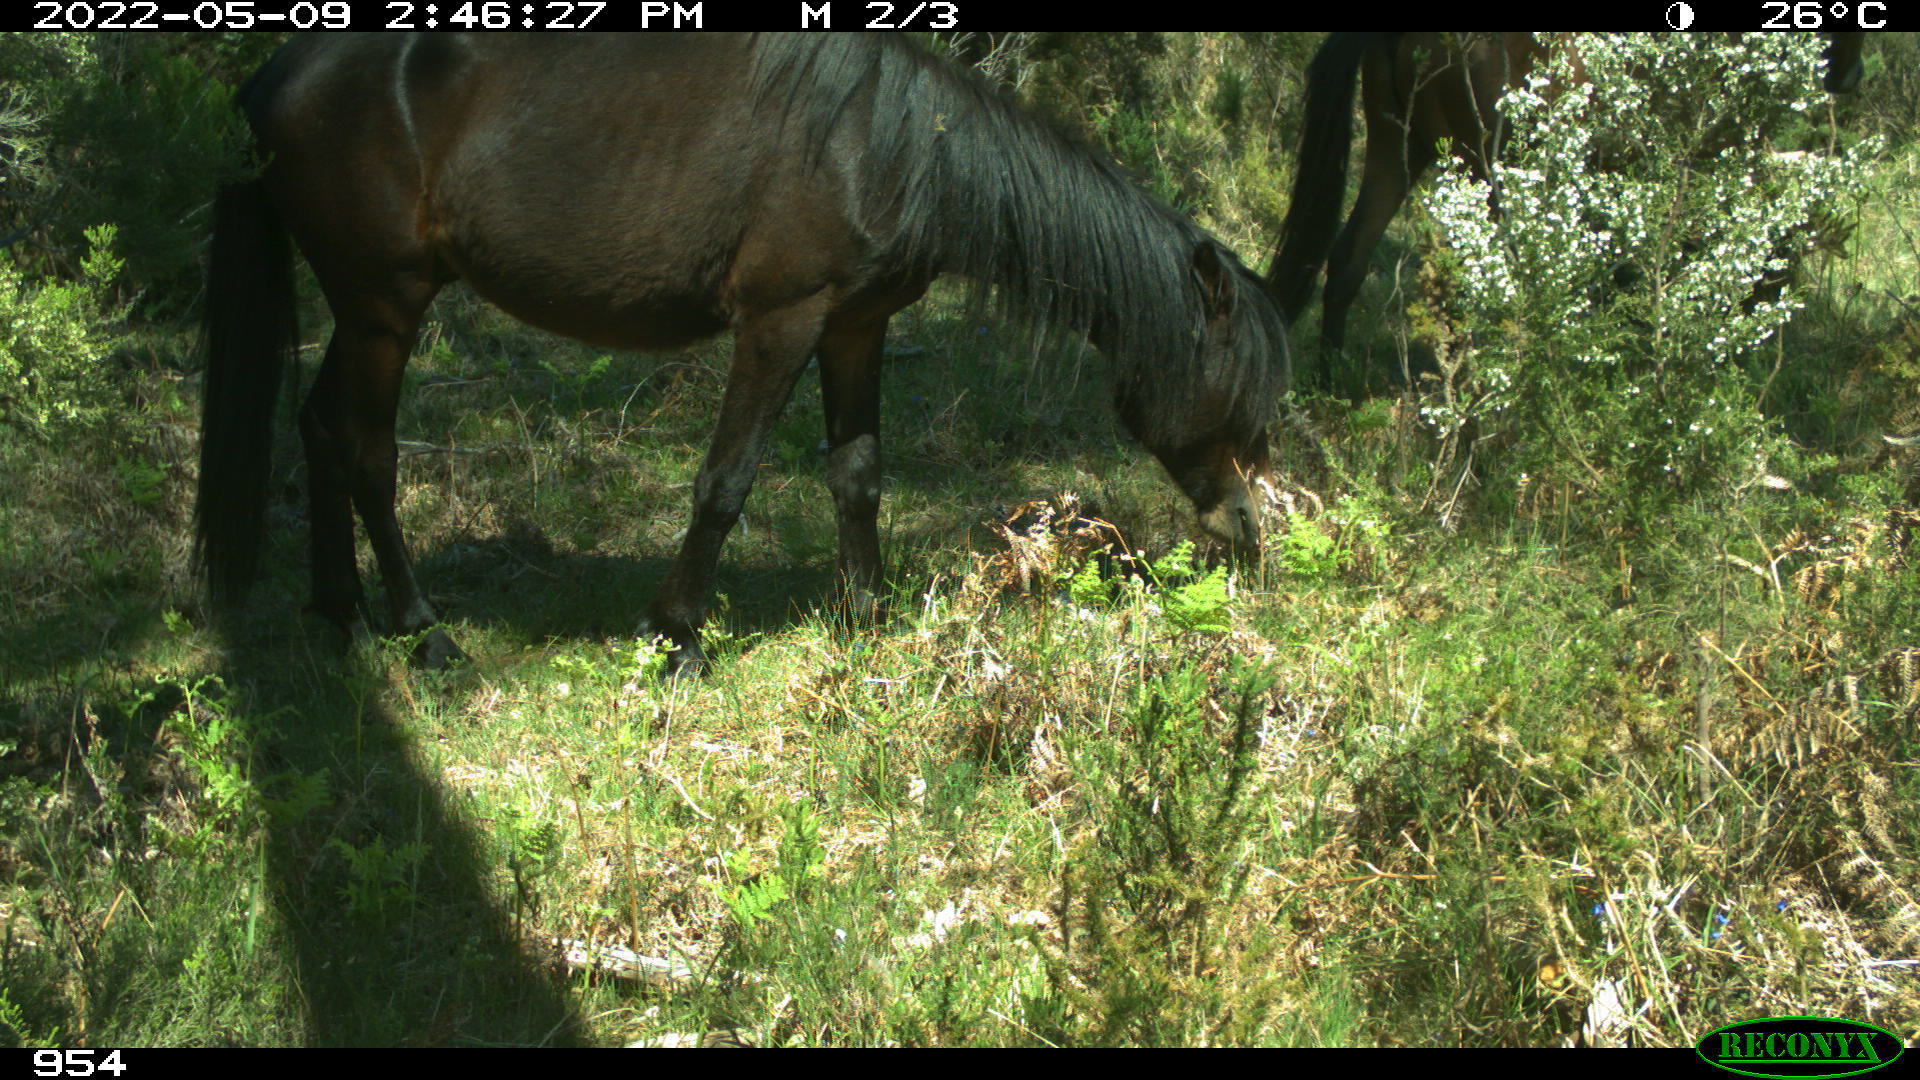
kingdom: Animalia
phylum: Chordata
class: Mammalia
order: Perissodactyla
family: Equidae
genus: Equus
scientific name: Equus caballus
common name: Horse
